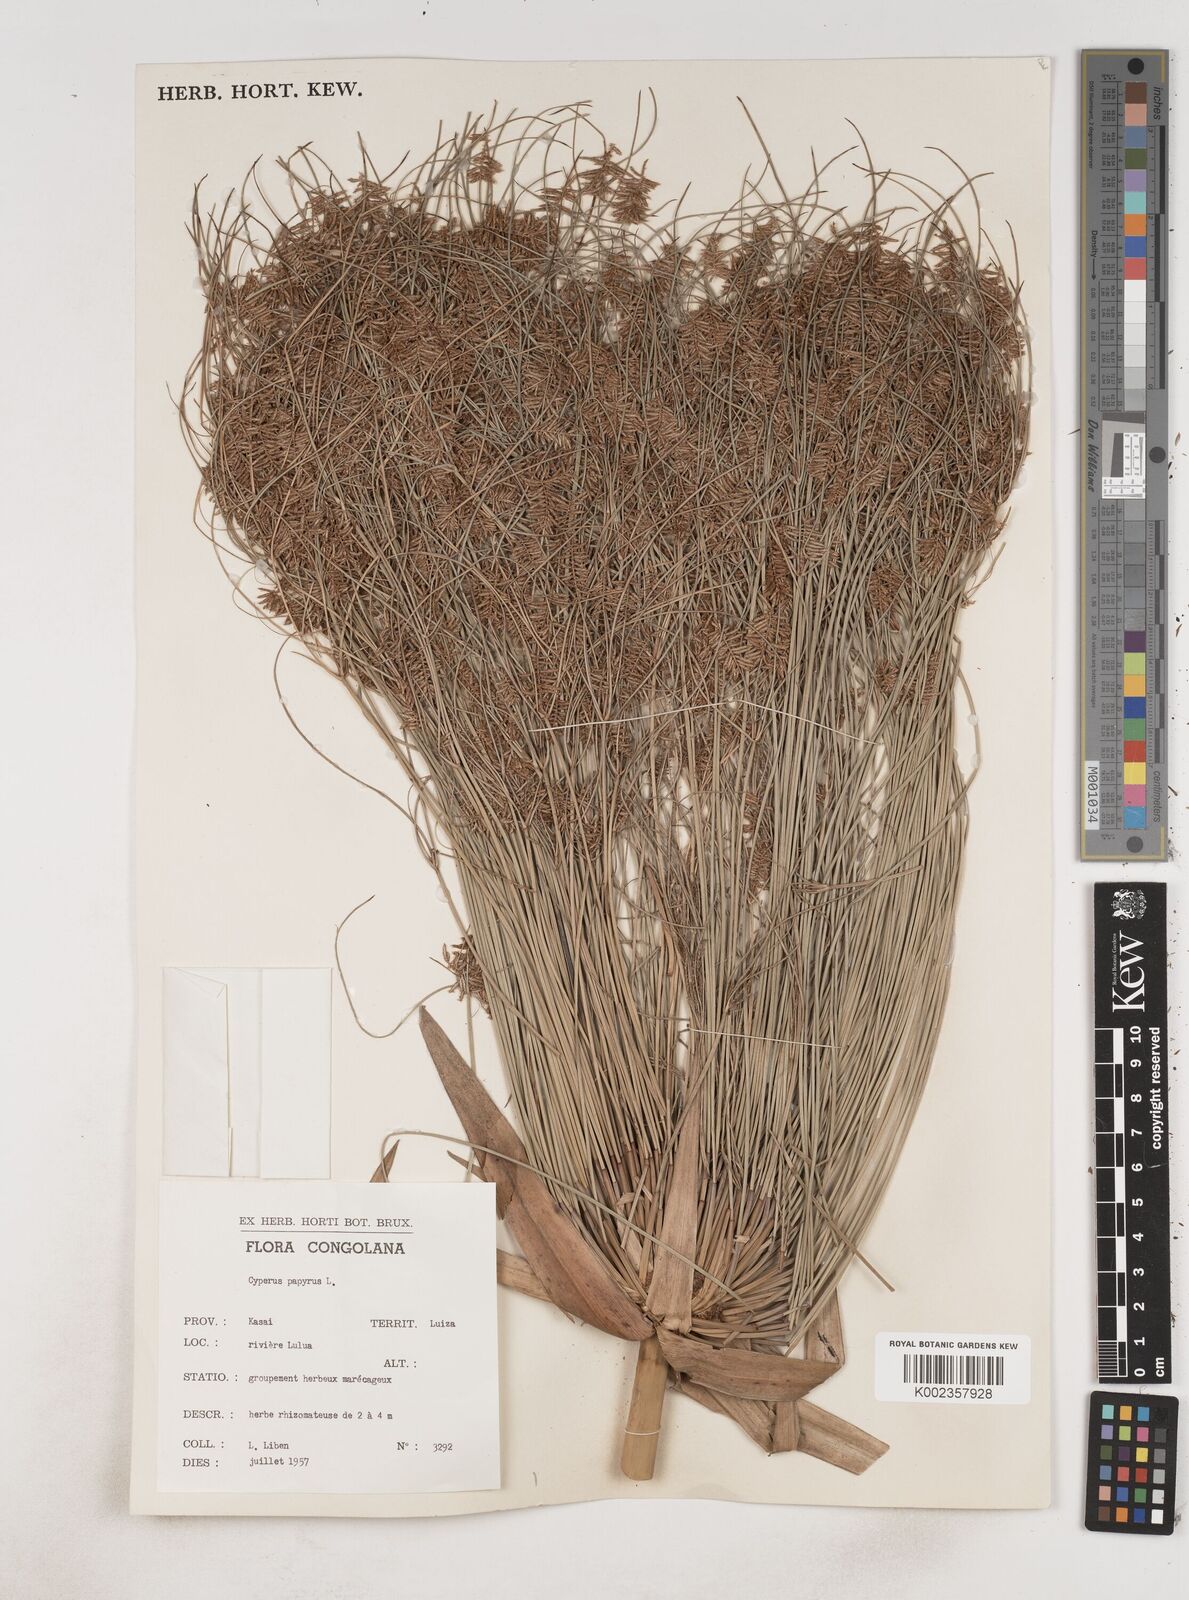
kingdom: Plantae
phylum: Tracheophyta
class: Liliopsida
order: Poales
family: Cyperaceae
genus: Cyperus
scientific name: Cyperus papyrus
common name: Papyrus
